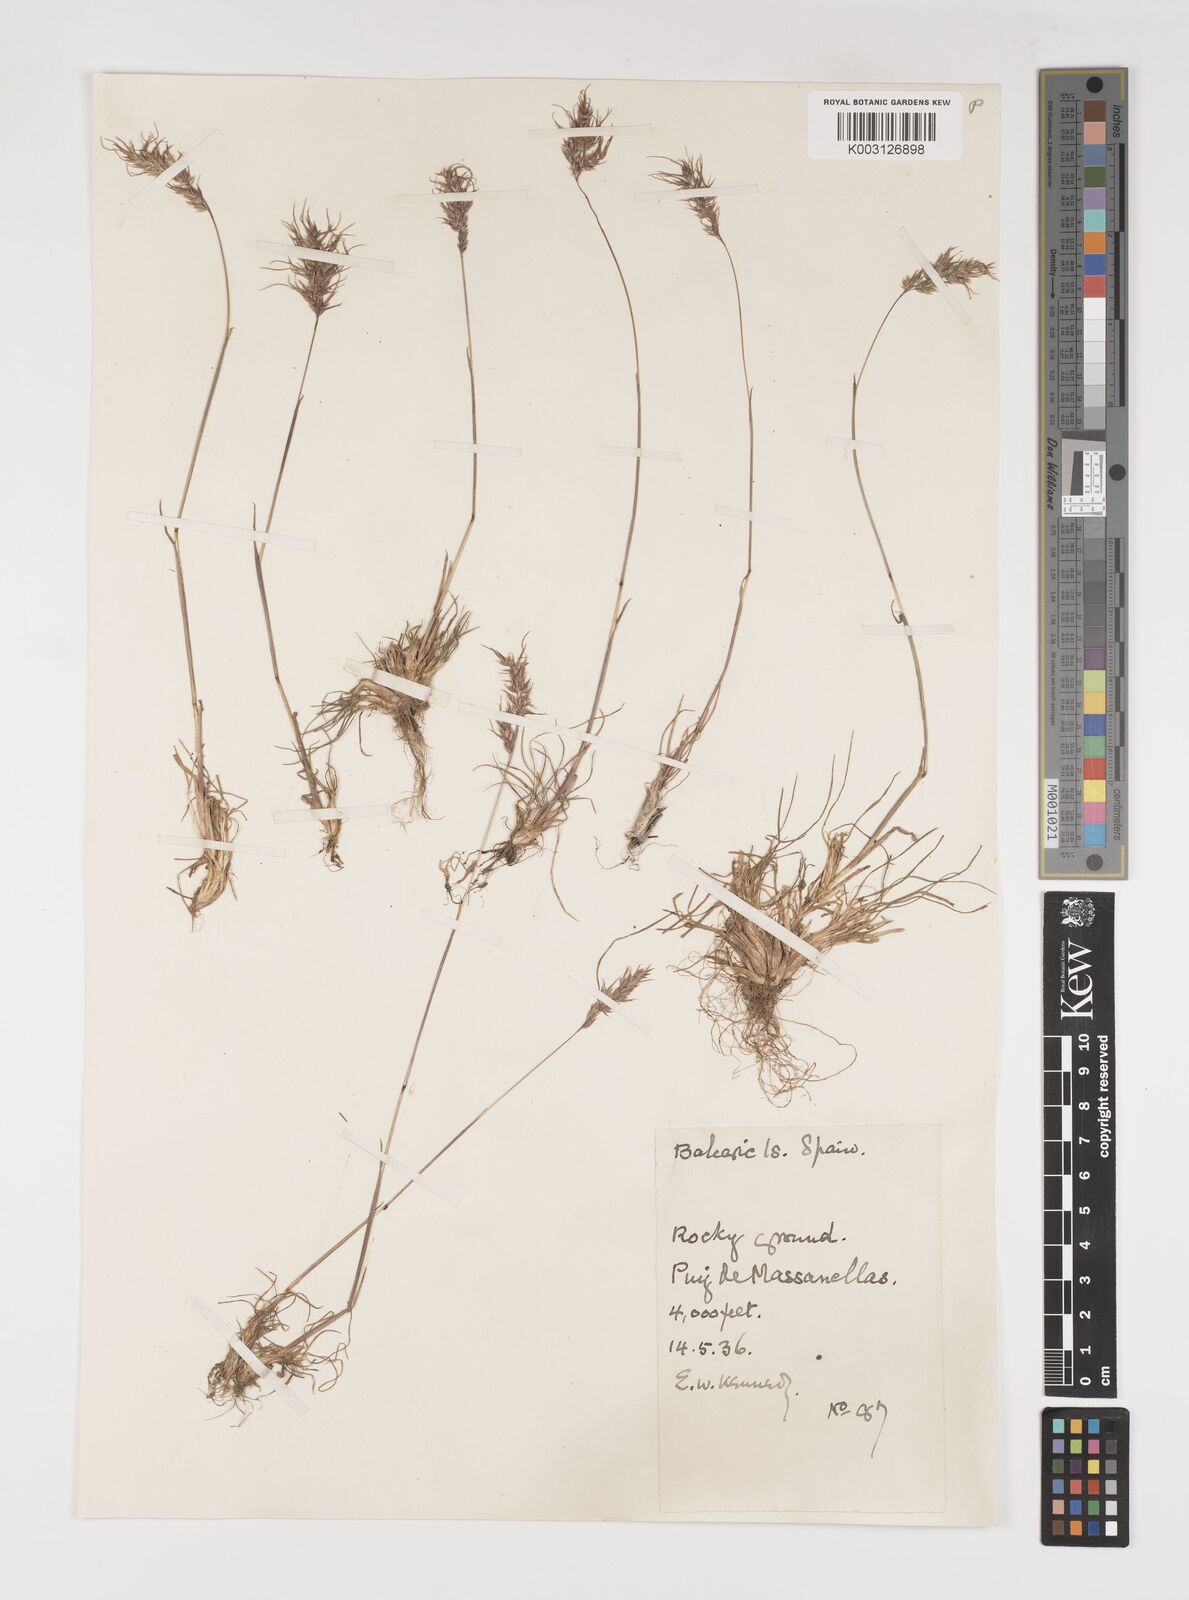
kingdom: Plantae
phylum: Tracheophyta
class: Liliopsida
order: Poales
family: Poaceae
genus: Poa
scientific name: Poa bulbosa
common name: Bulbous bluegrass
